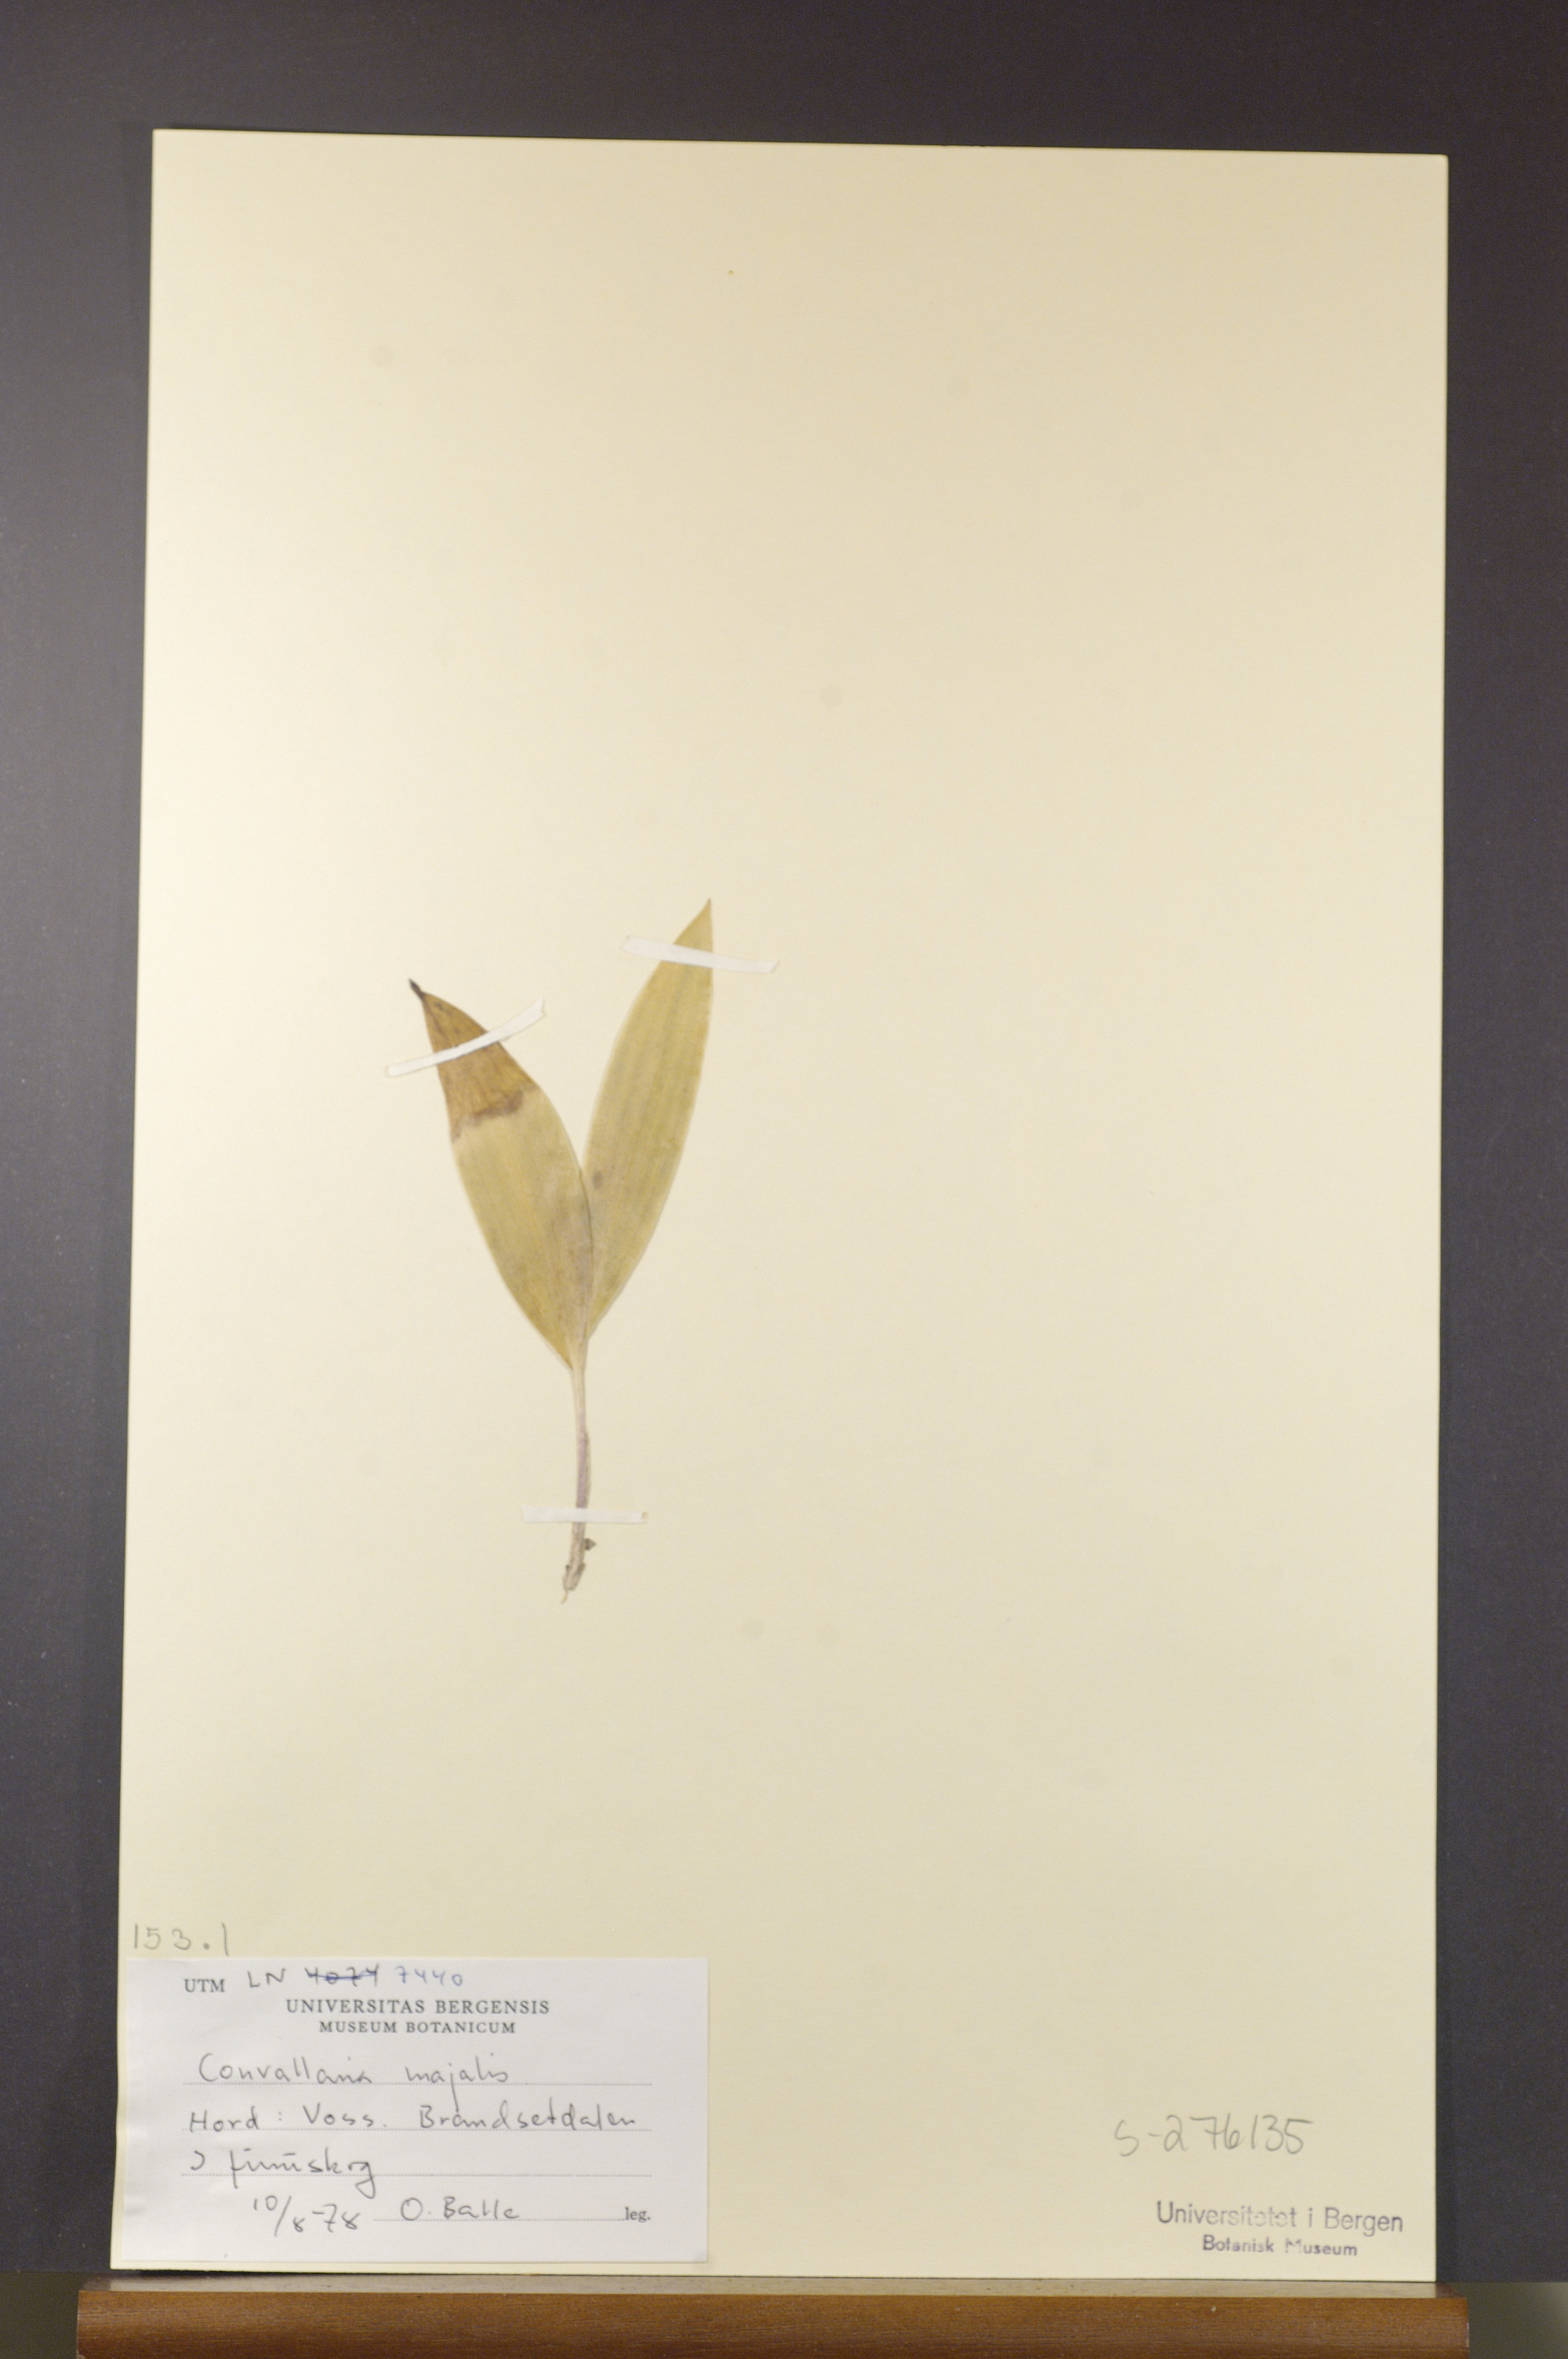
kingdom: Plantae
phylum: Tracheophyta
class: Liliopsida
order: Asparagales
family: Asparagaceae
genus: Convallaria
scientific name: Convallaria majalis
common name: Lily-of-the-valley
